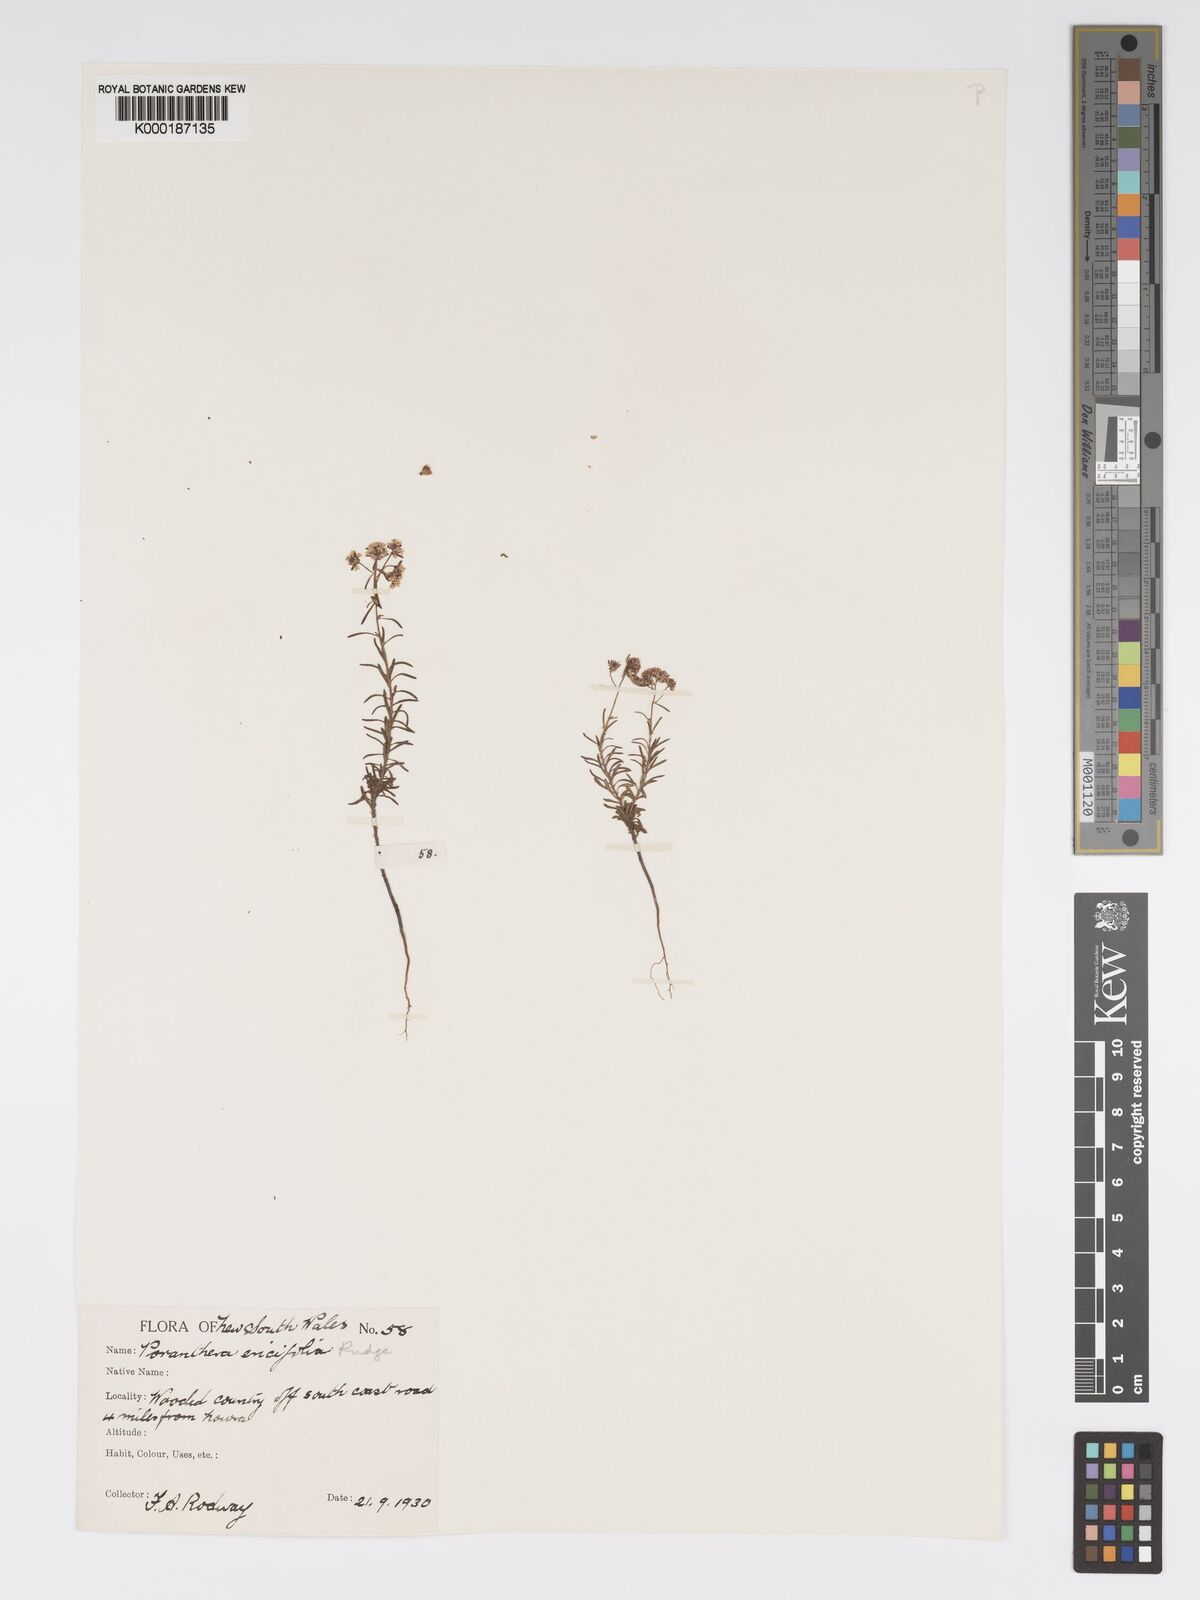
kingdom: Plantae
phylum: Tracheophyta
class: Magnoliopsida
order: Malpighiales
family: Phyllanthaceae
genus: Poranthera
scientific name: Poranthera ericifolia
